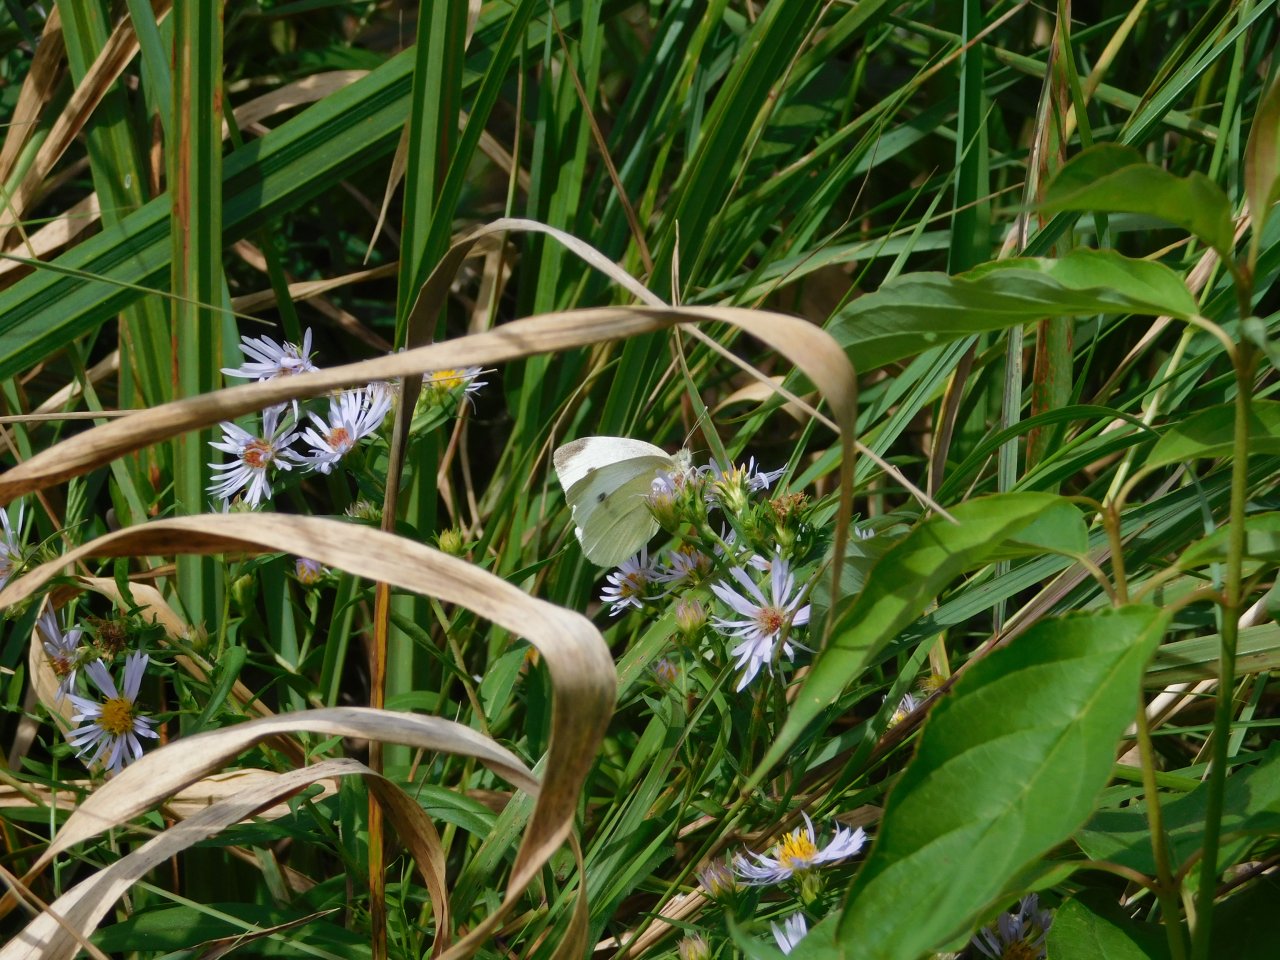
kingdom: Animalia
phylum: Arthropoda
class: Insecta
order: Lepidoptera
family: Pieridae
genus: Pieris
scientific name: Pieris rapae
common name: Cabbage White
